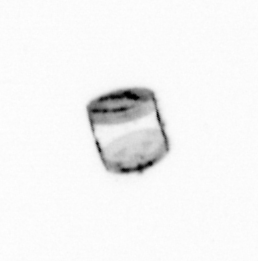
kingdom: Chromista
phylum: Ochrophyta
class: Bacillariophyceae
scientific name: Bacillariophyceae
